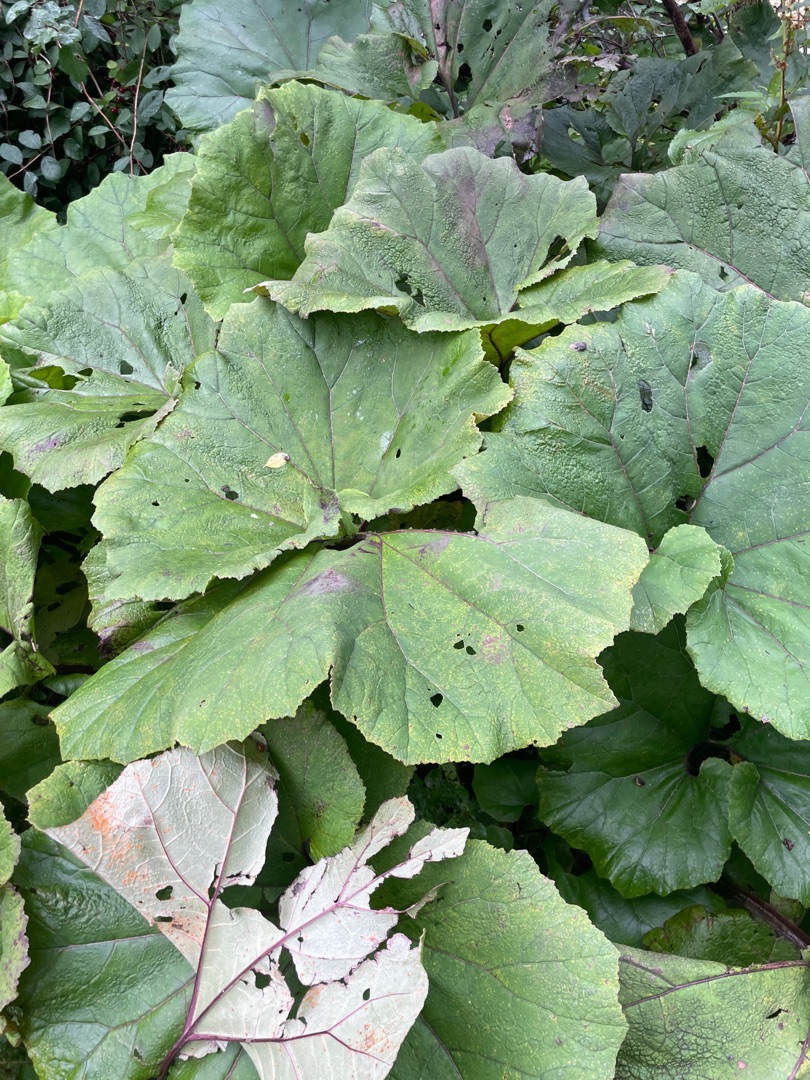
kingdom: Plantae
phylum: Tracheophyta
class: Magnoliopsida
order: Asterales
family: Asteraceae
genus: Petasites
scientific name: Petasites hybridus
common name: Rød hestehov
